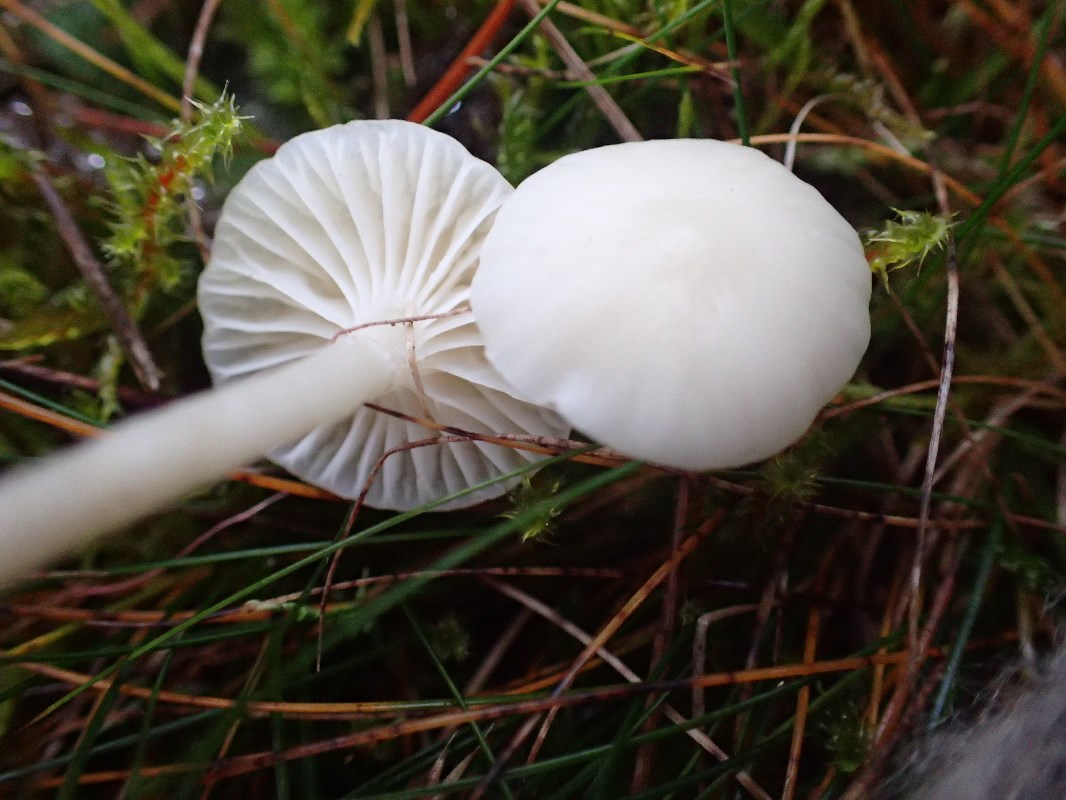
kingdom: Fungi
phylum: Basidiomycota
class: Agaricomycetes
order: Agaricales
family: Hygrophoraceae
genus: Cuphophyllus
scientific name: Cuphophyllus virgineus
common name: snehvid vokshat
